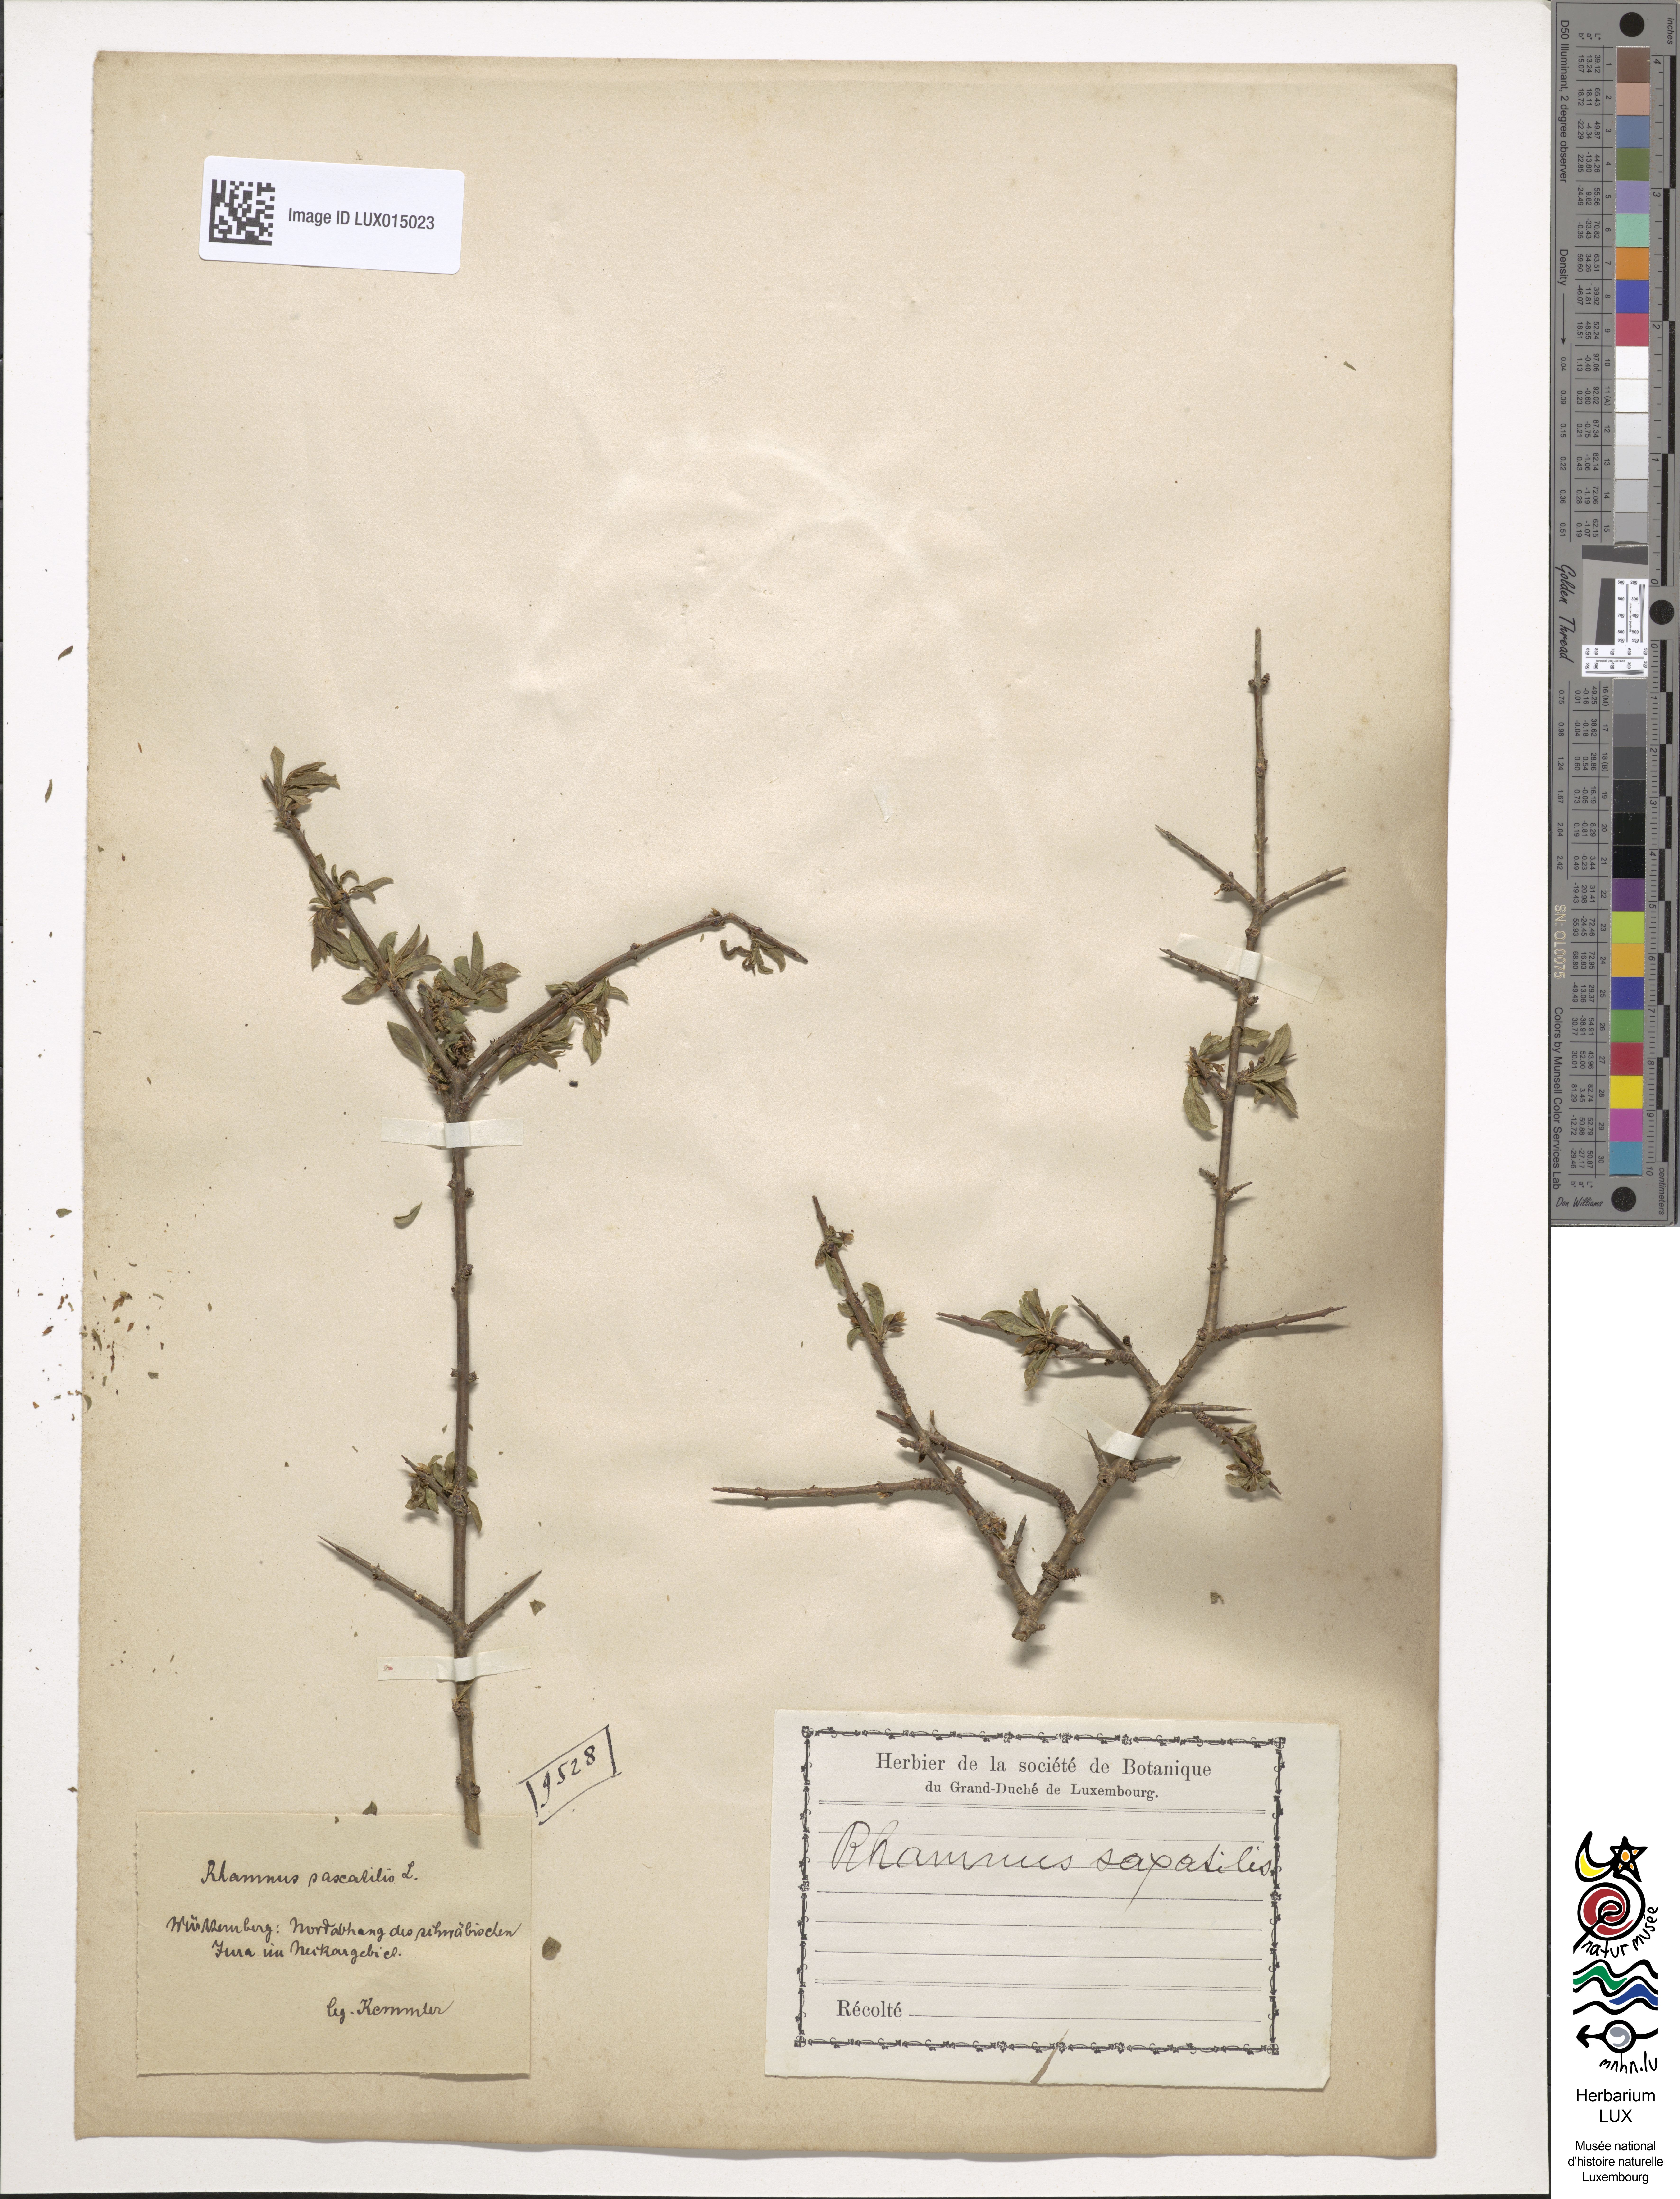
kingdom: Plantae
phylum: Tracheophyta
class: Magnoliopsida
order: Rosales
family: Rhamnaceae
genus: Rhamnus
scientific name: Rhamnus saxatilis
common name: Rock buckthorn
